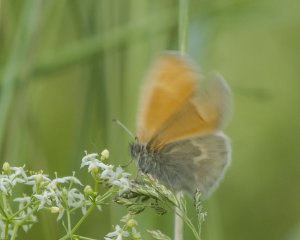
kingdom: Animalia
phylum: Arthropoda
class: Insecta
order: Lepidoptera
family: Nymphalidae
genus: Coenonympha
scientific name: Coenonympha tullia
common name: Large Heath
